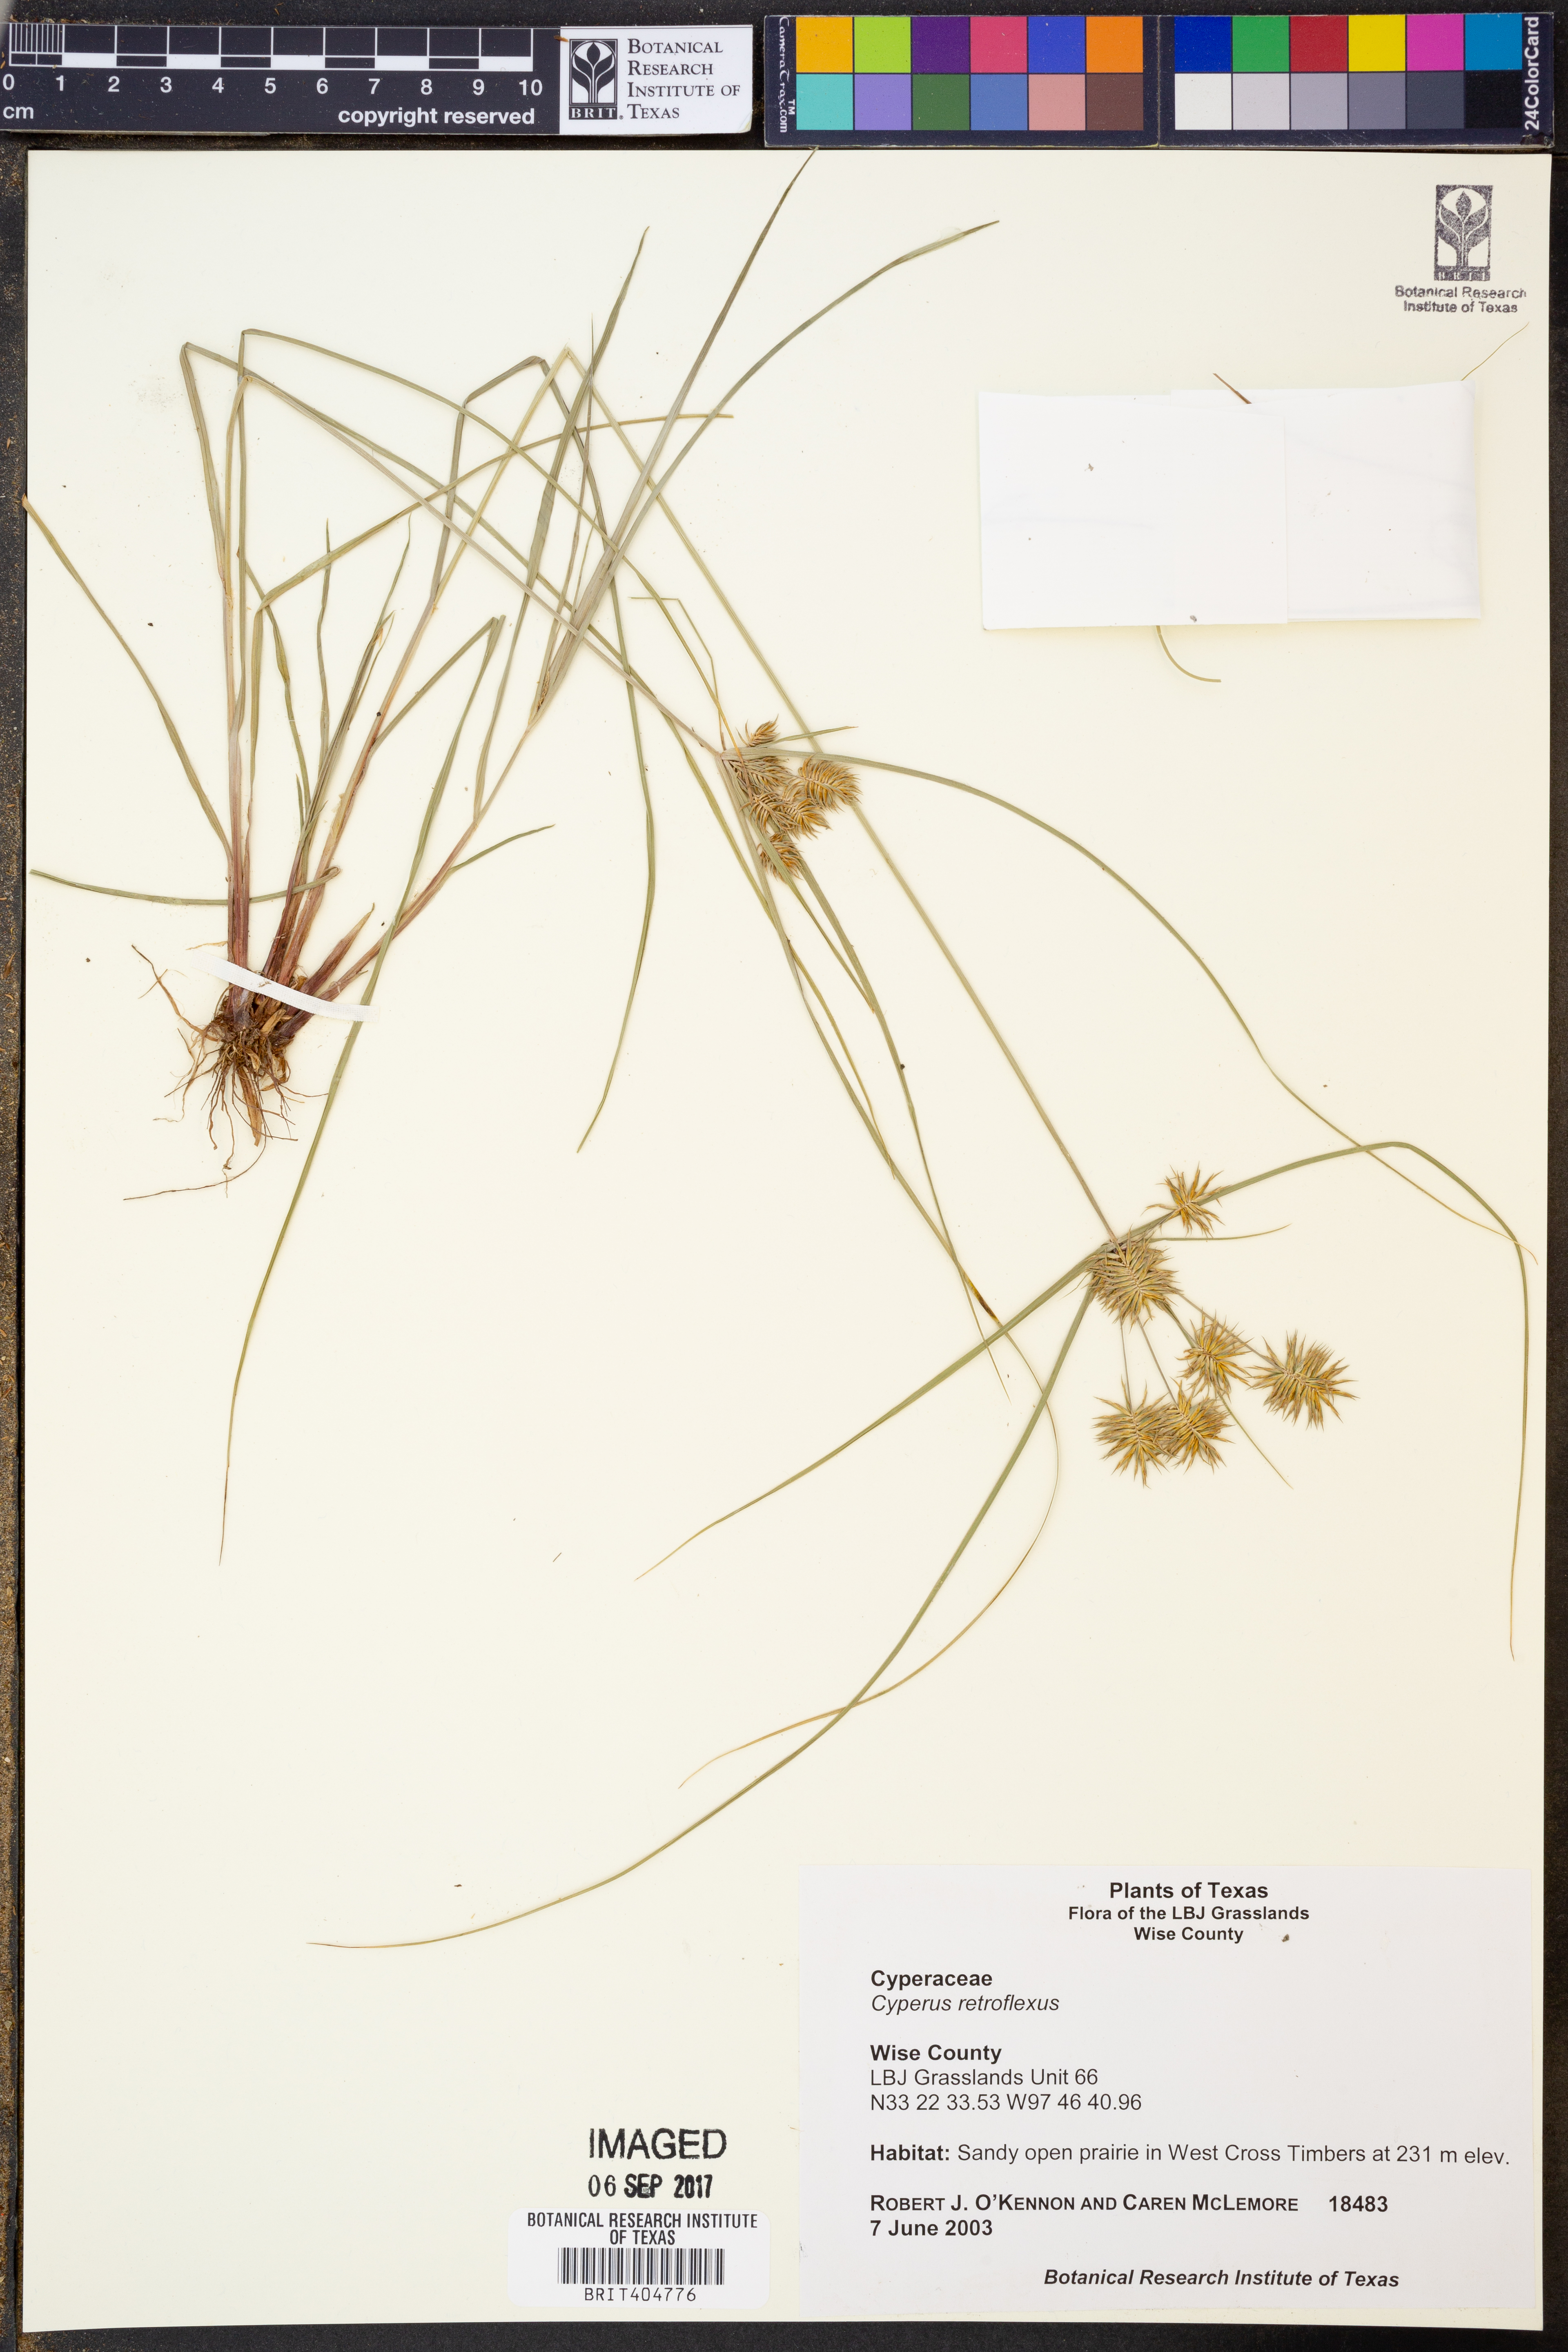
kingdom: Plantae
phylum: Tracheophyta
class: Liliopsida
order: Poales
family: Cyperaceae
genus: Cyperus
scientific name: Cyperus retroflexus
